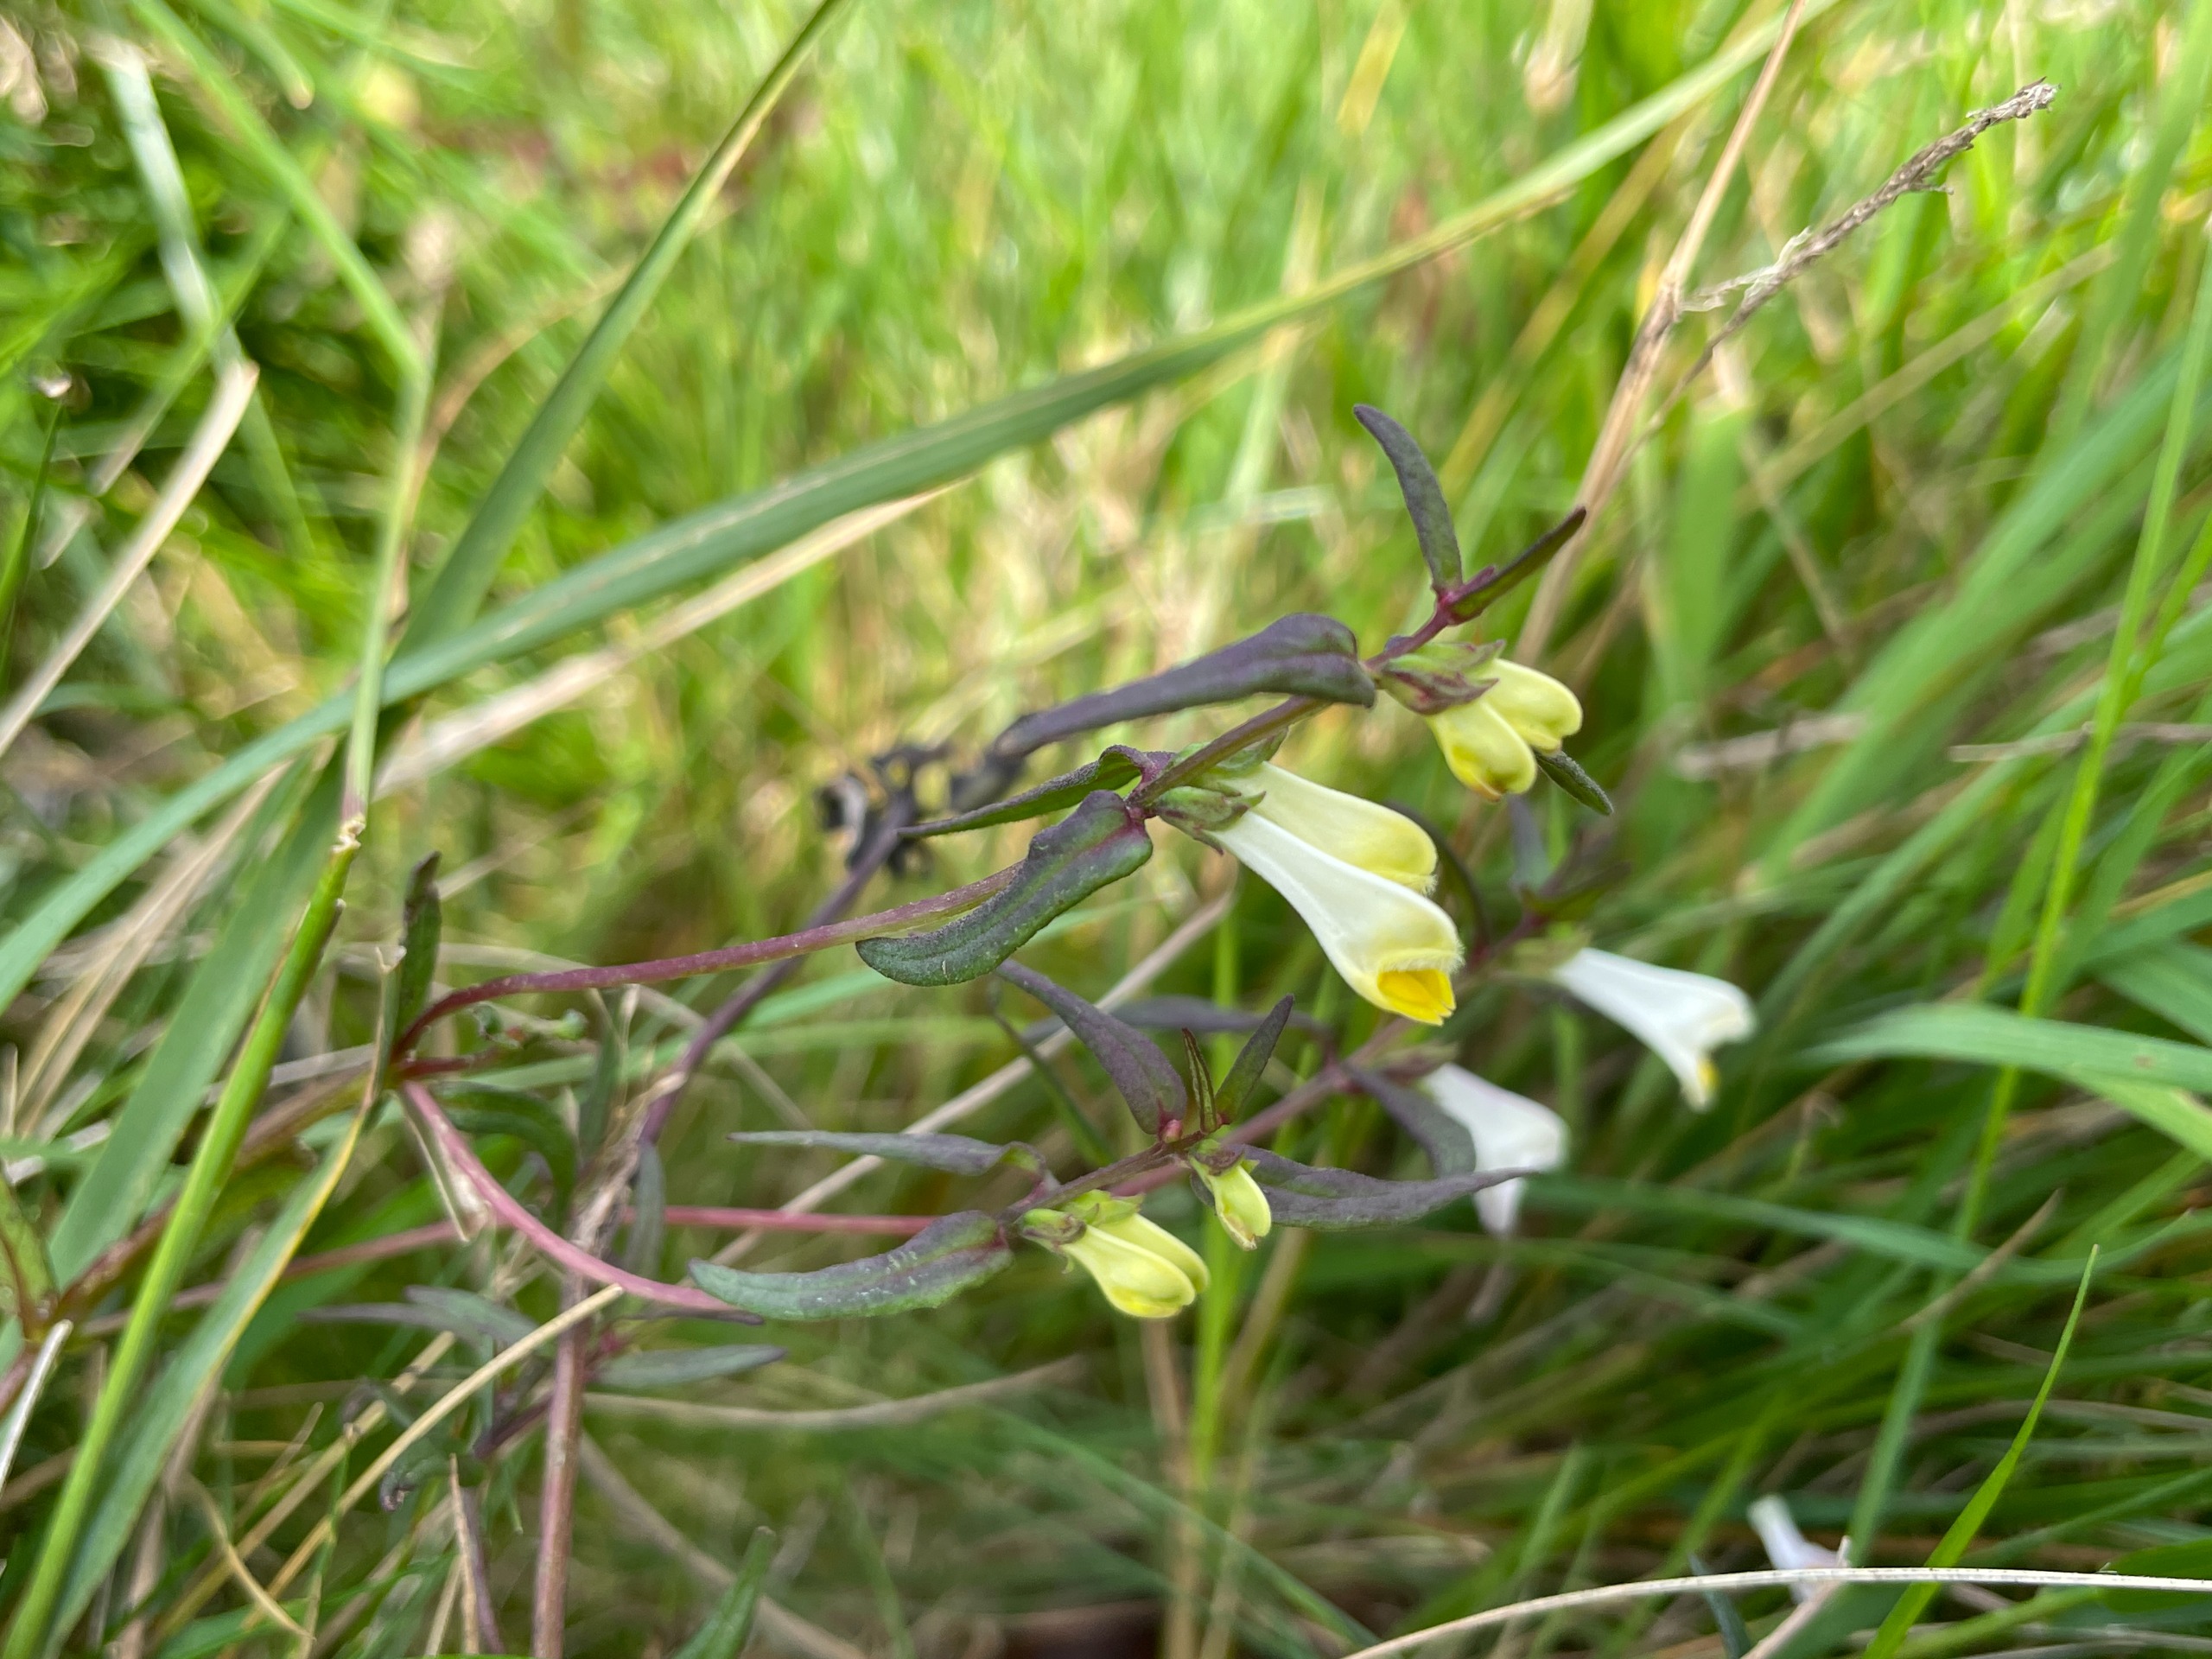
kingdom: Plantae
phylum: Tracheophyta
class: Magnoliopsida
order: Lamiales
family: Orobanchaceae
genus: Melampyrum
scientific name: Melampyrum pratense
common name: Almindelig kohvede
